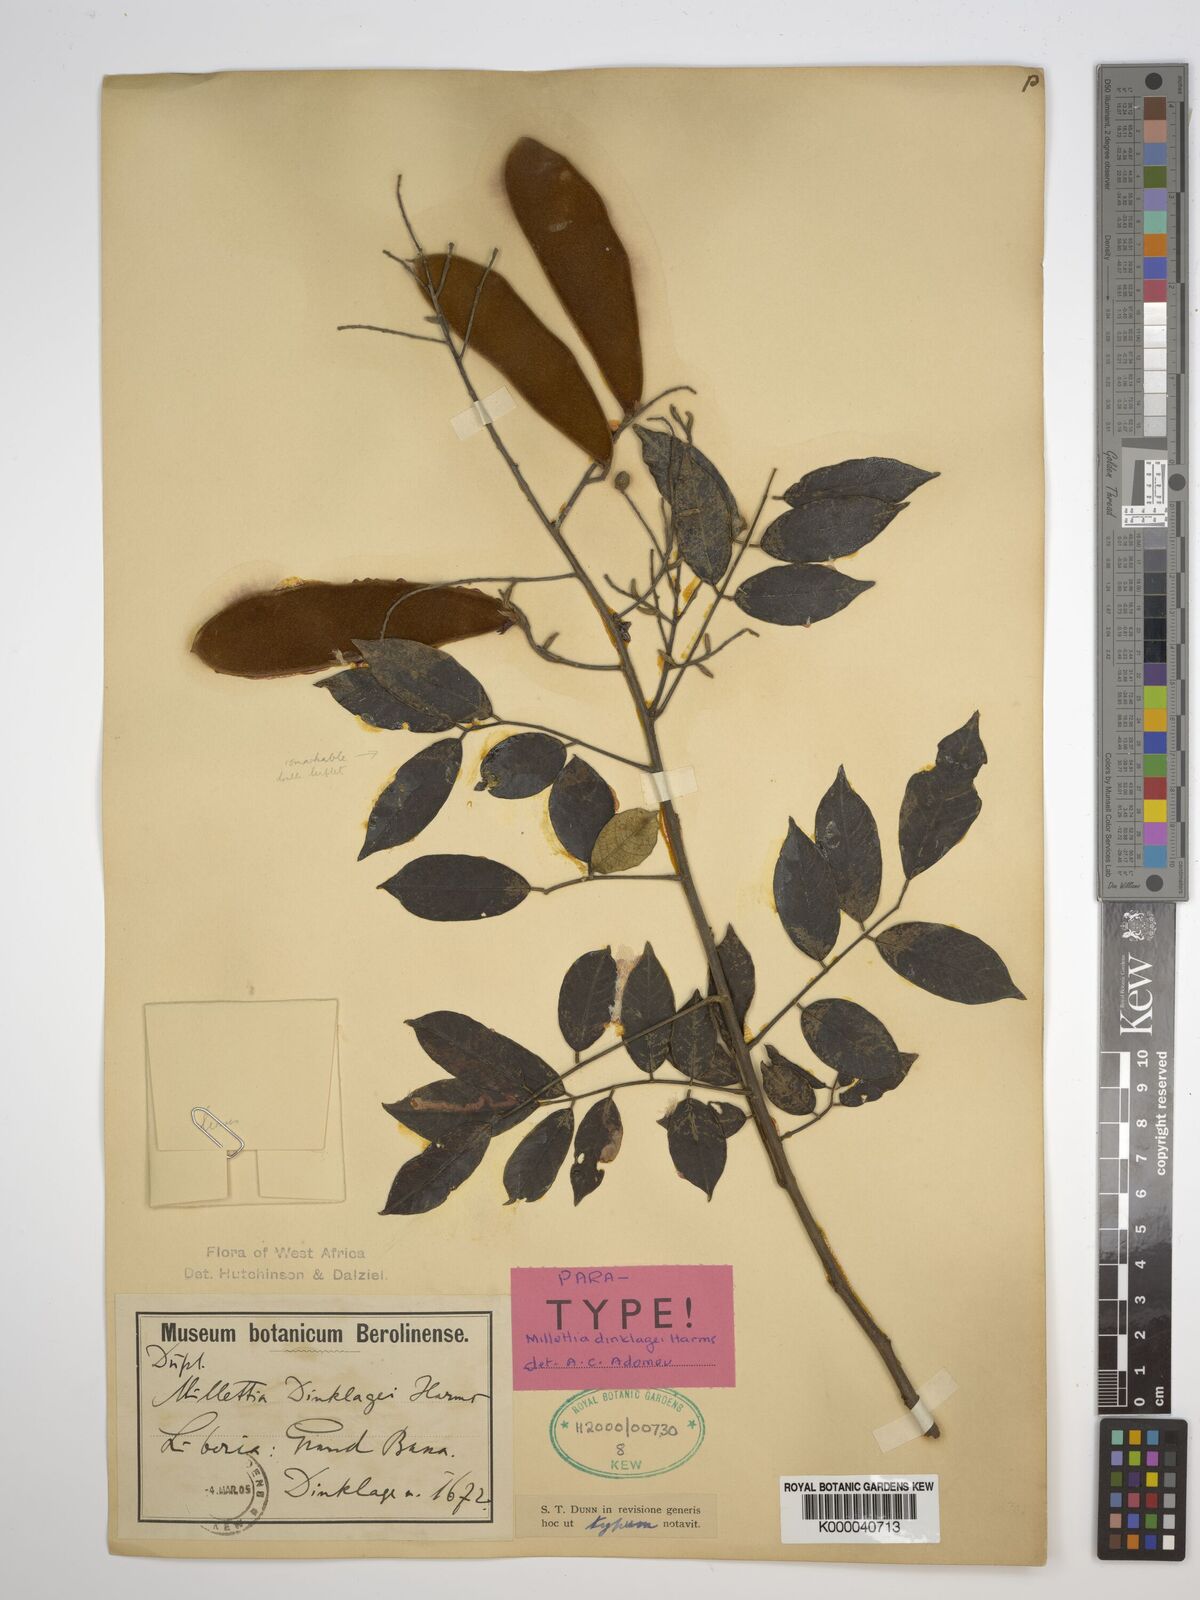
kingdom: Plantae
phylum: Tracheophyta
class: Magnoliopsida
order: Fabales
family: Fabaceae
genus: Millettia
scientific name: Millettia dinklagei
